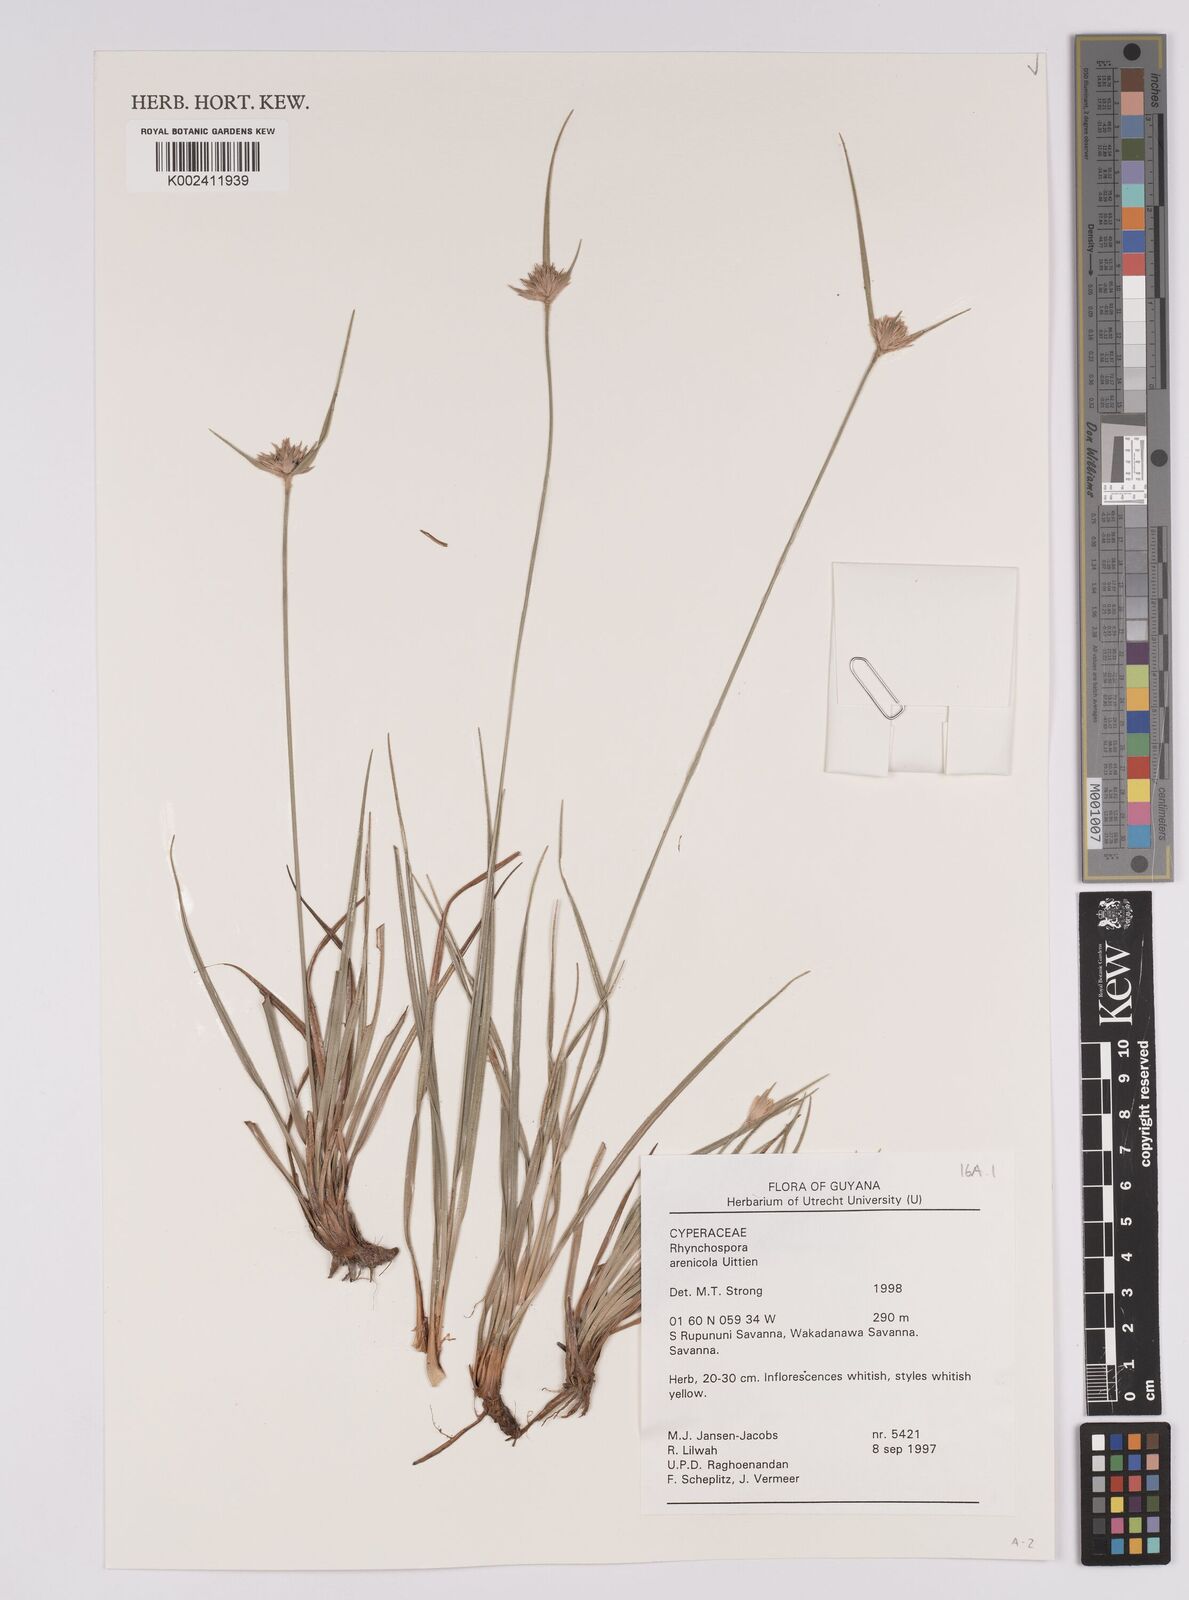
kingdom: Plantae
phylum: Tracheophyta
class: Liliopsida
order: Poales
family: Cyperaceae
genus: Rhynchospora
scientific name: Rhynchospora arenicola
